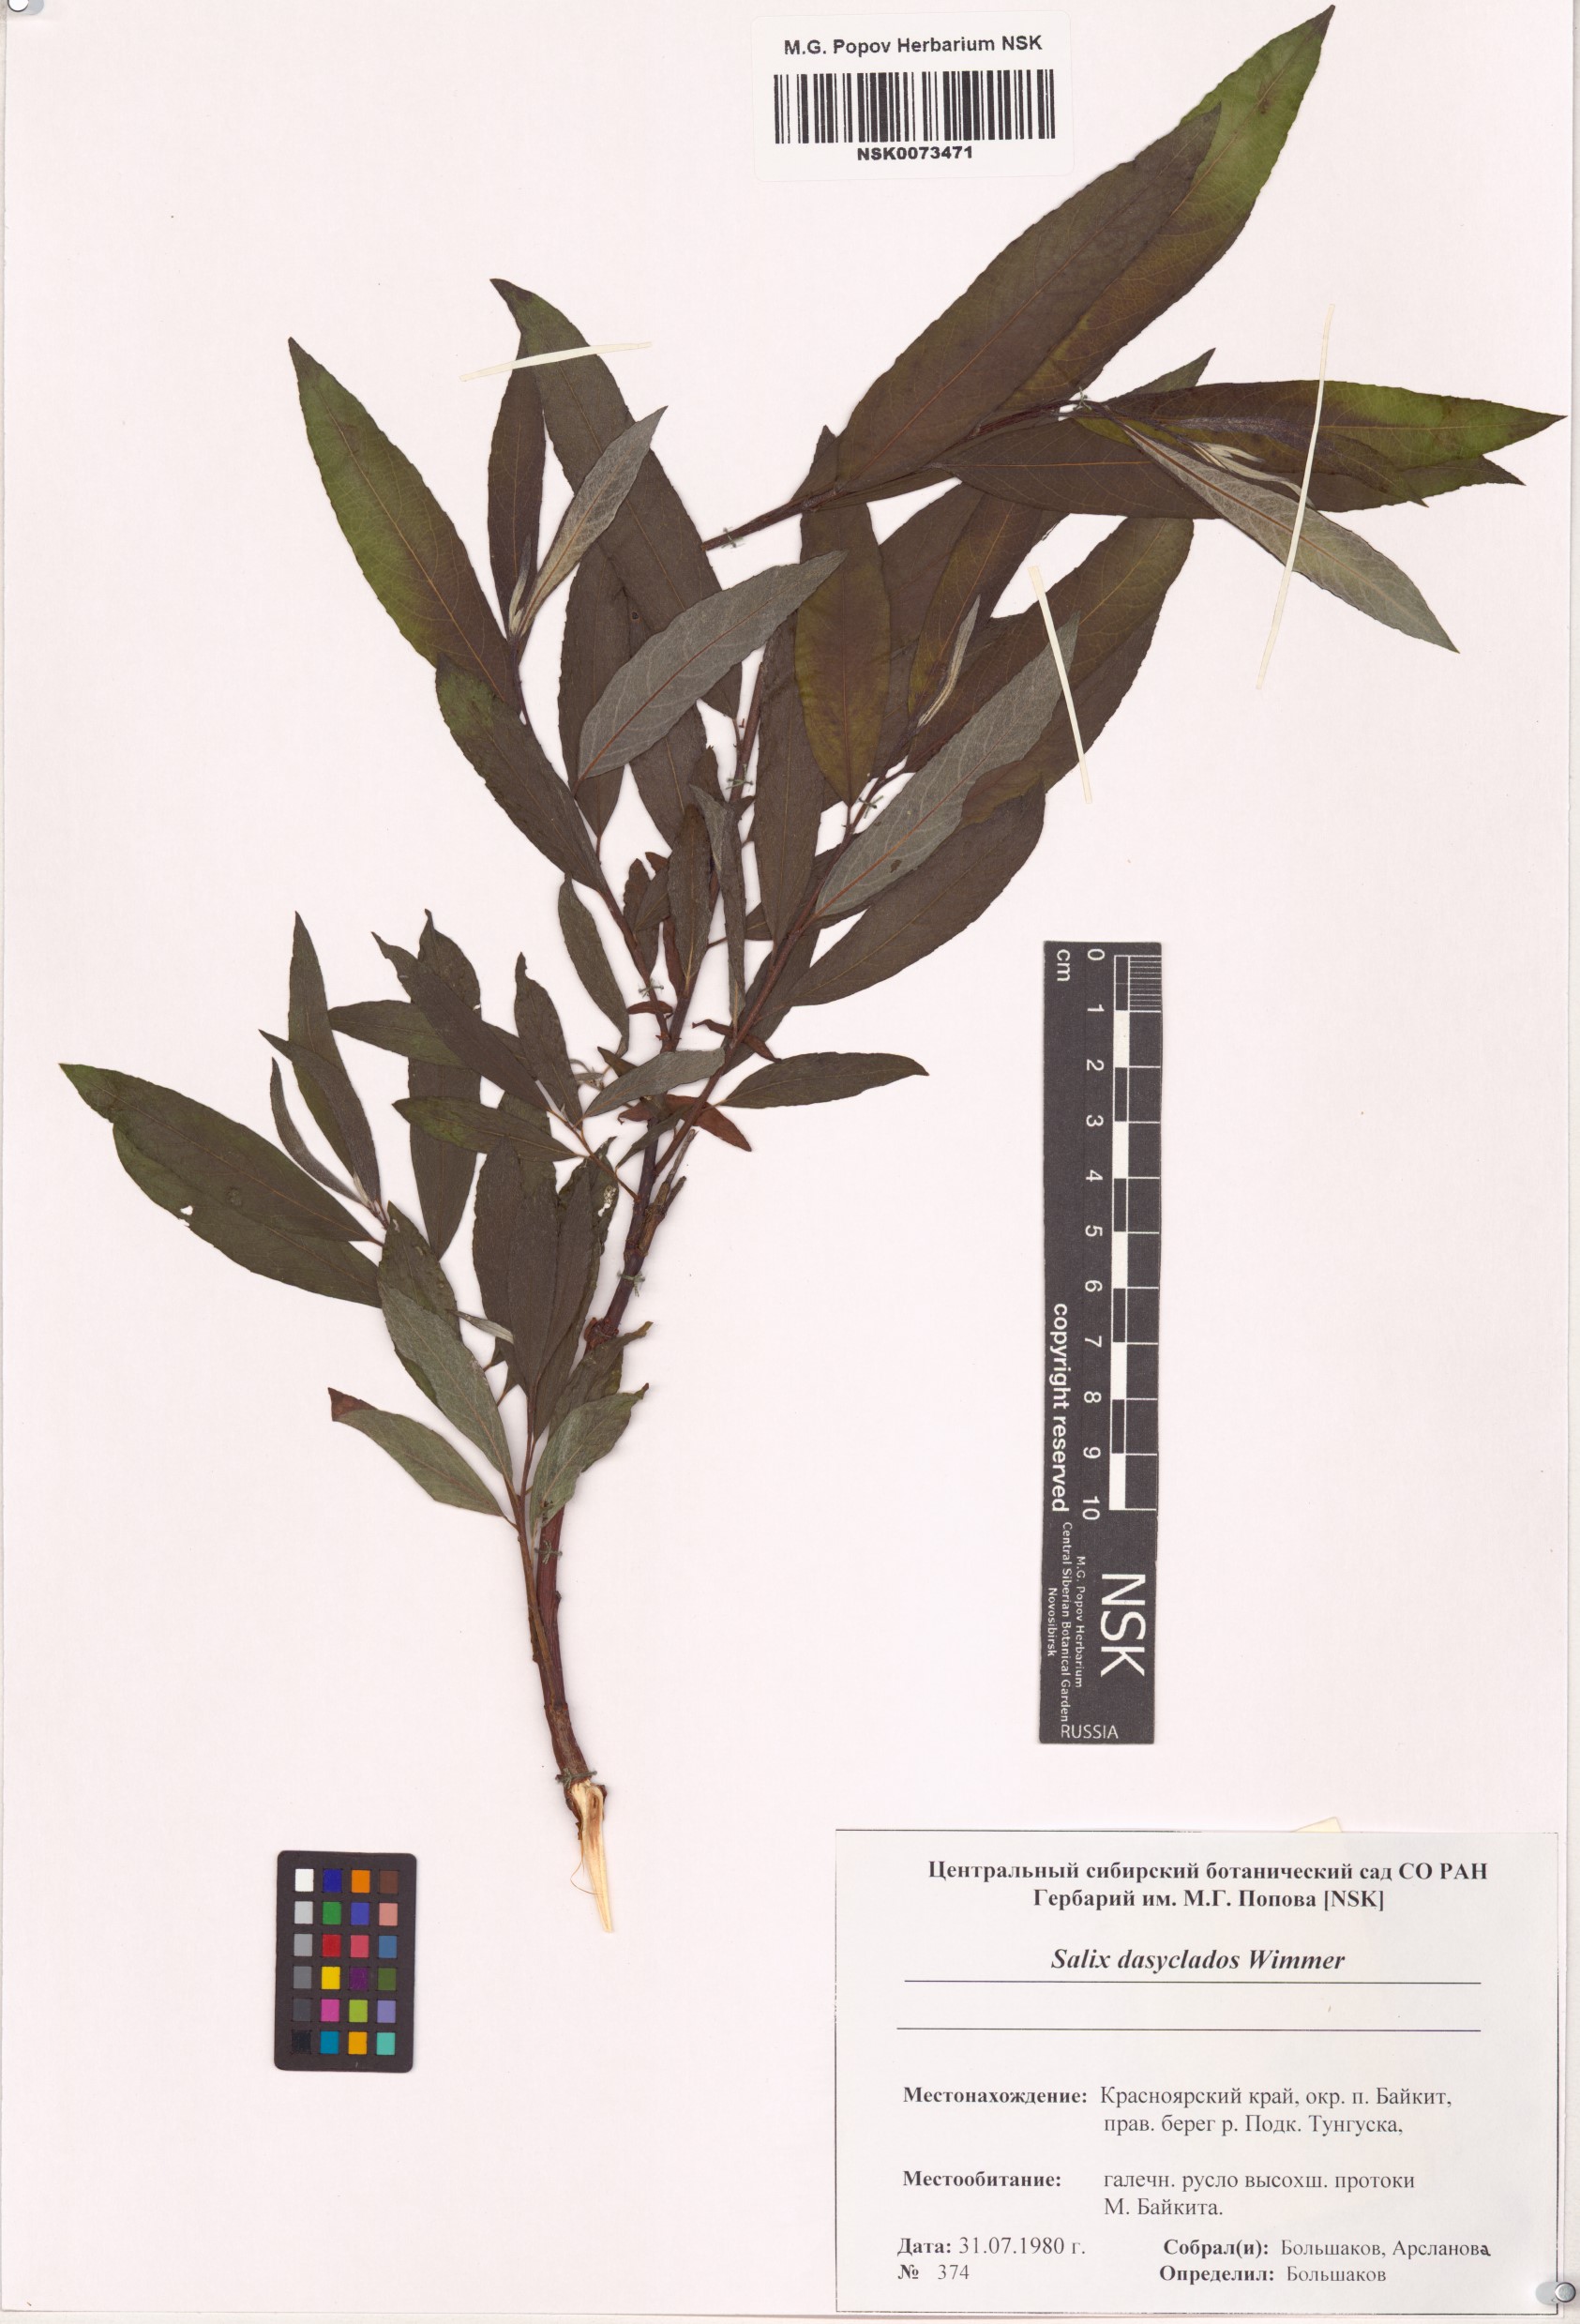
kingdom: Plantae
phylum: Tracheophyta
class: Magnoliopsida
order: Malpighiales
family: Salicaceae
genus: Salix
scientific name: Salix gmelinii
